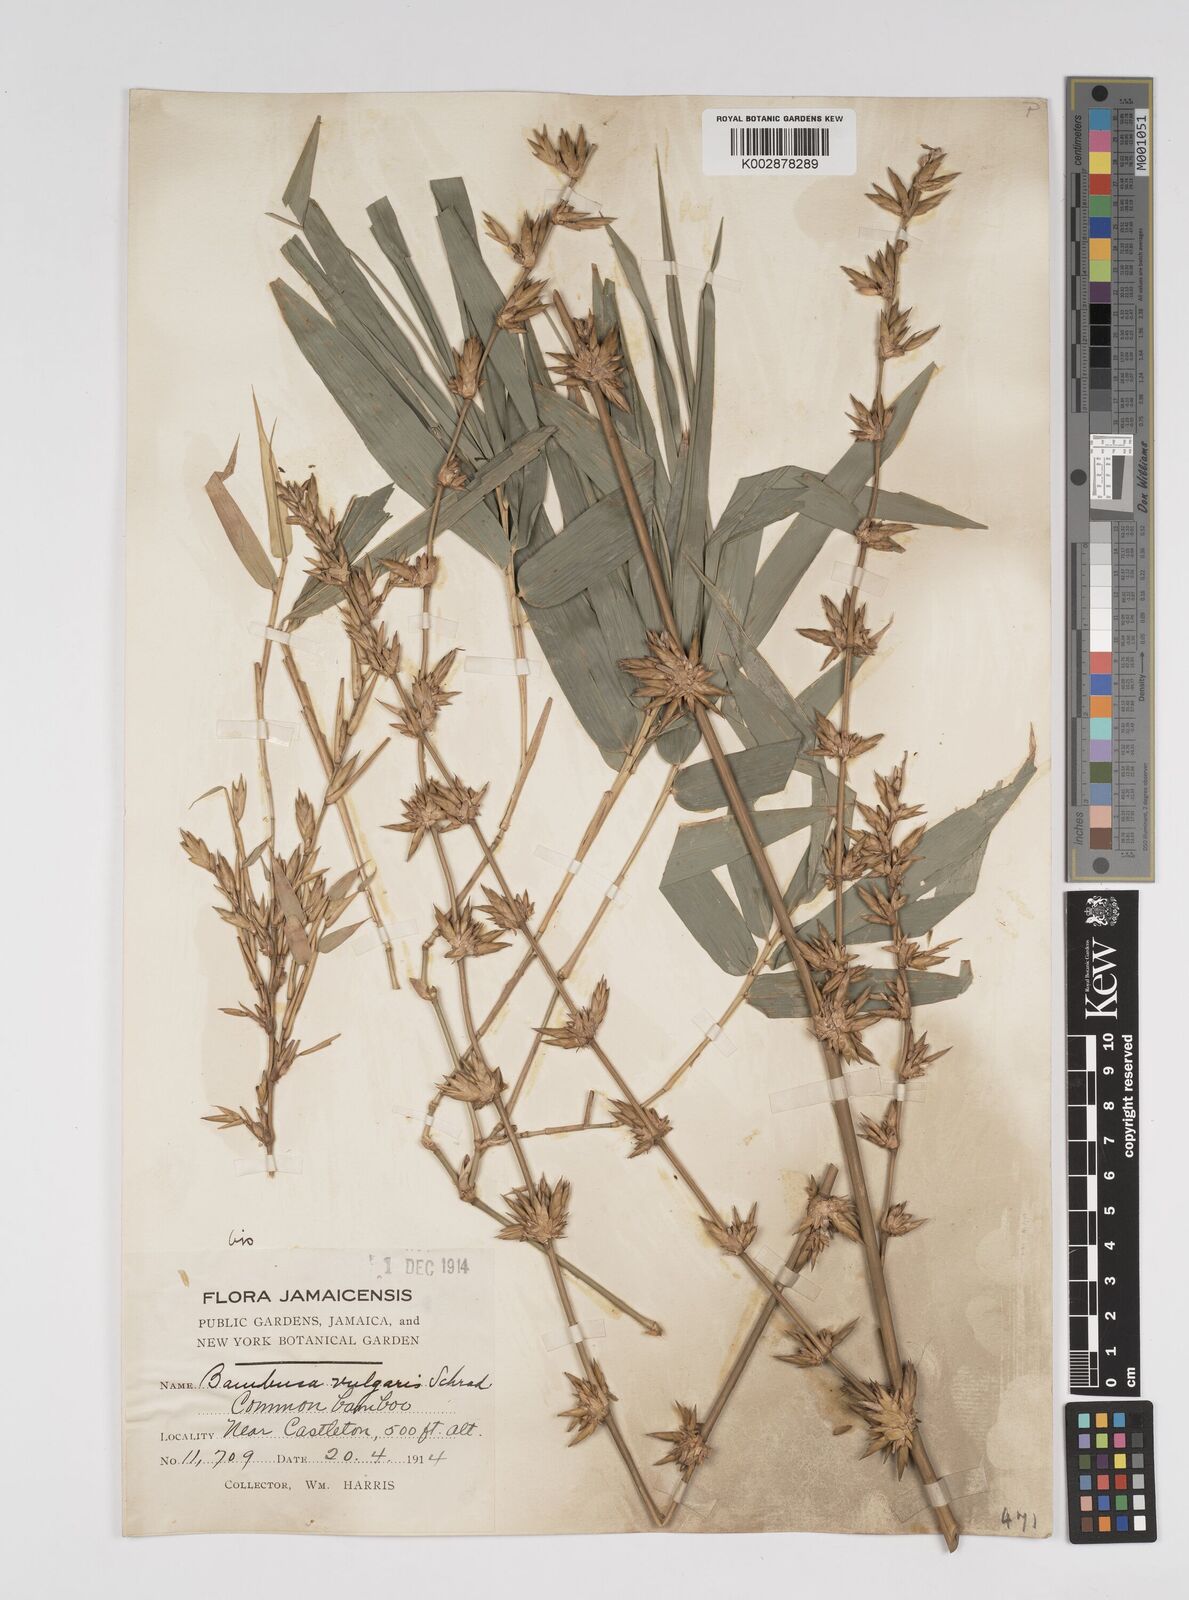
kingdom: Plantae
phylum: Tracheophyta
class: Liliopsida
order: Poales
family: Poaceae
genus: Bambusa
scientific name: Bambusa vulgaris
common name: Common bamboo
